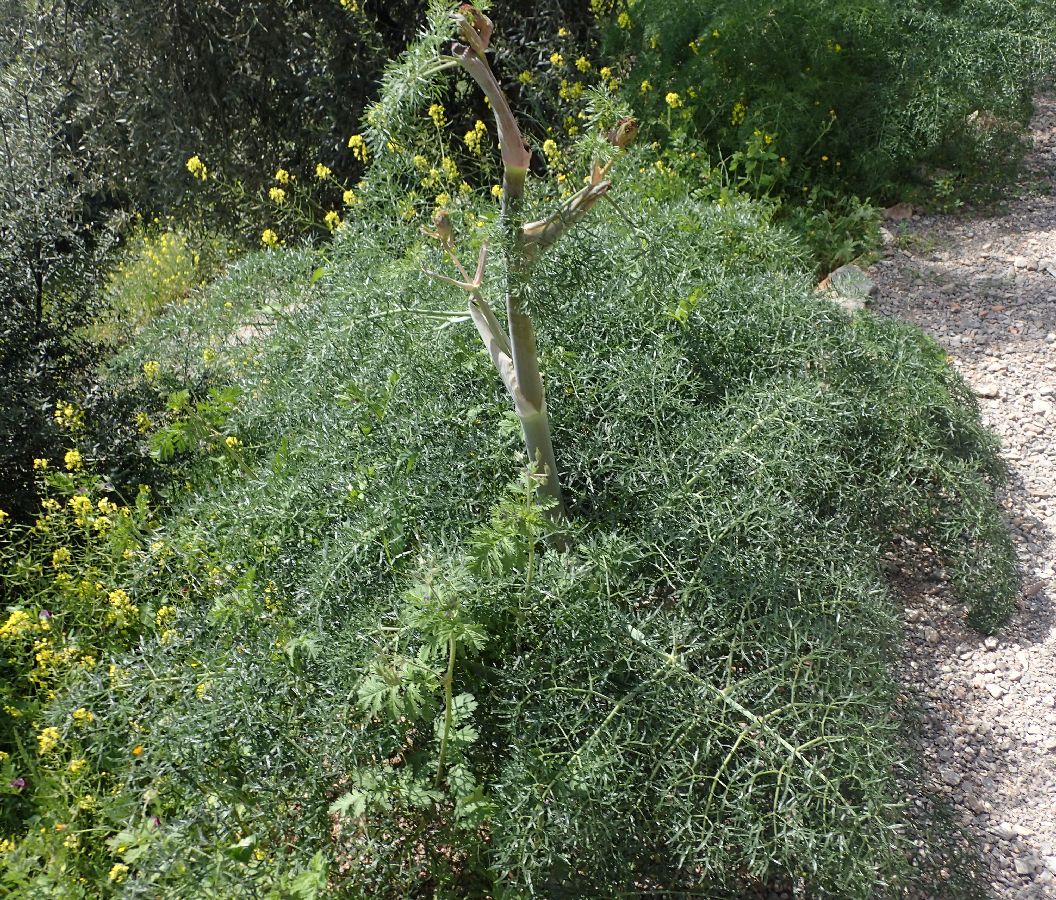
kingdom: Plantae
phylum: Tracheophyta
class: Magnoliopsida
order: Apiales
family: Apiaceae
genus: Ferula
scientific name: Ferula communis
